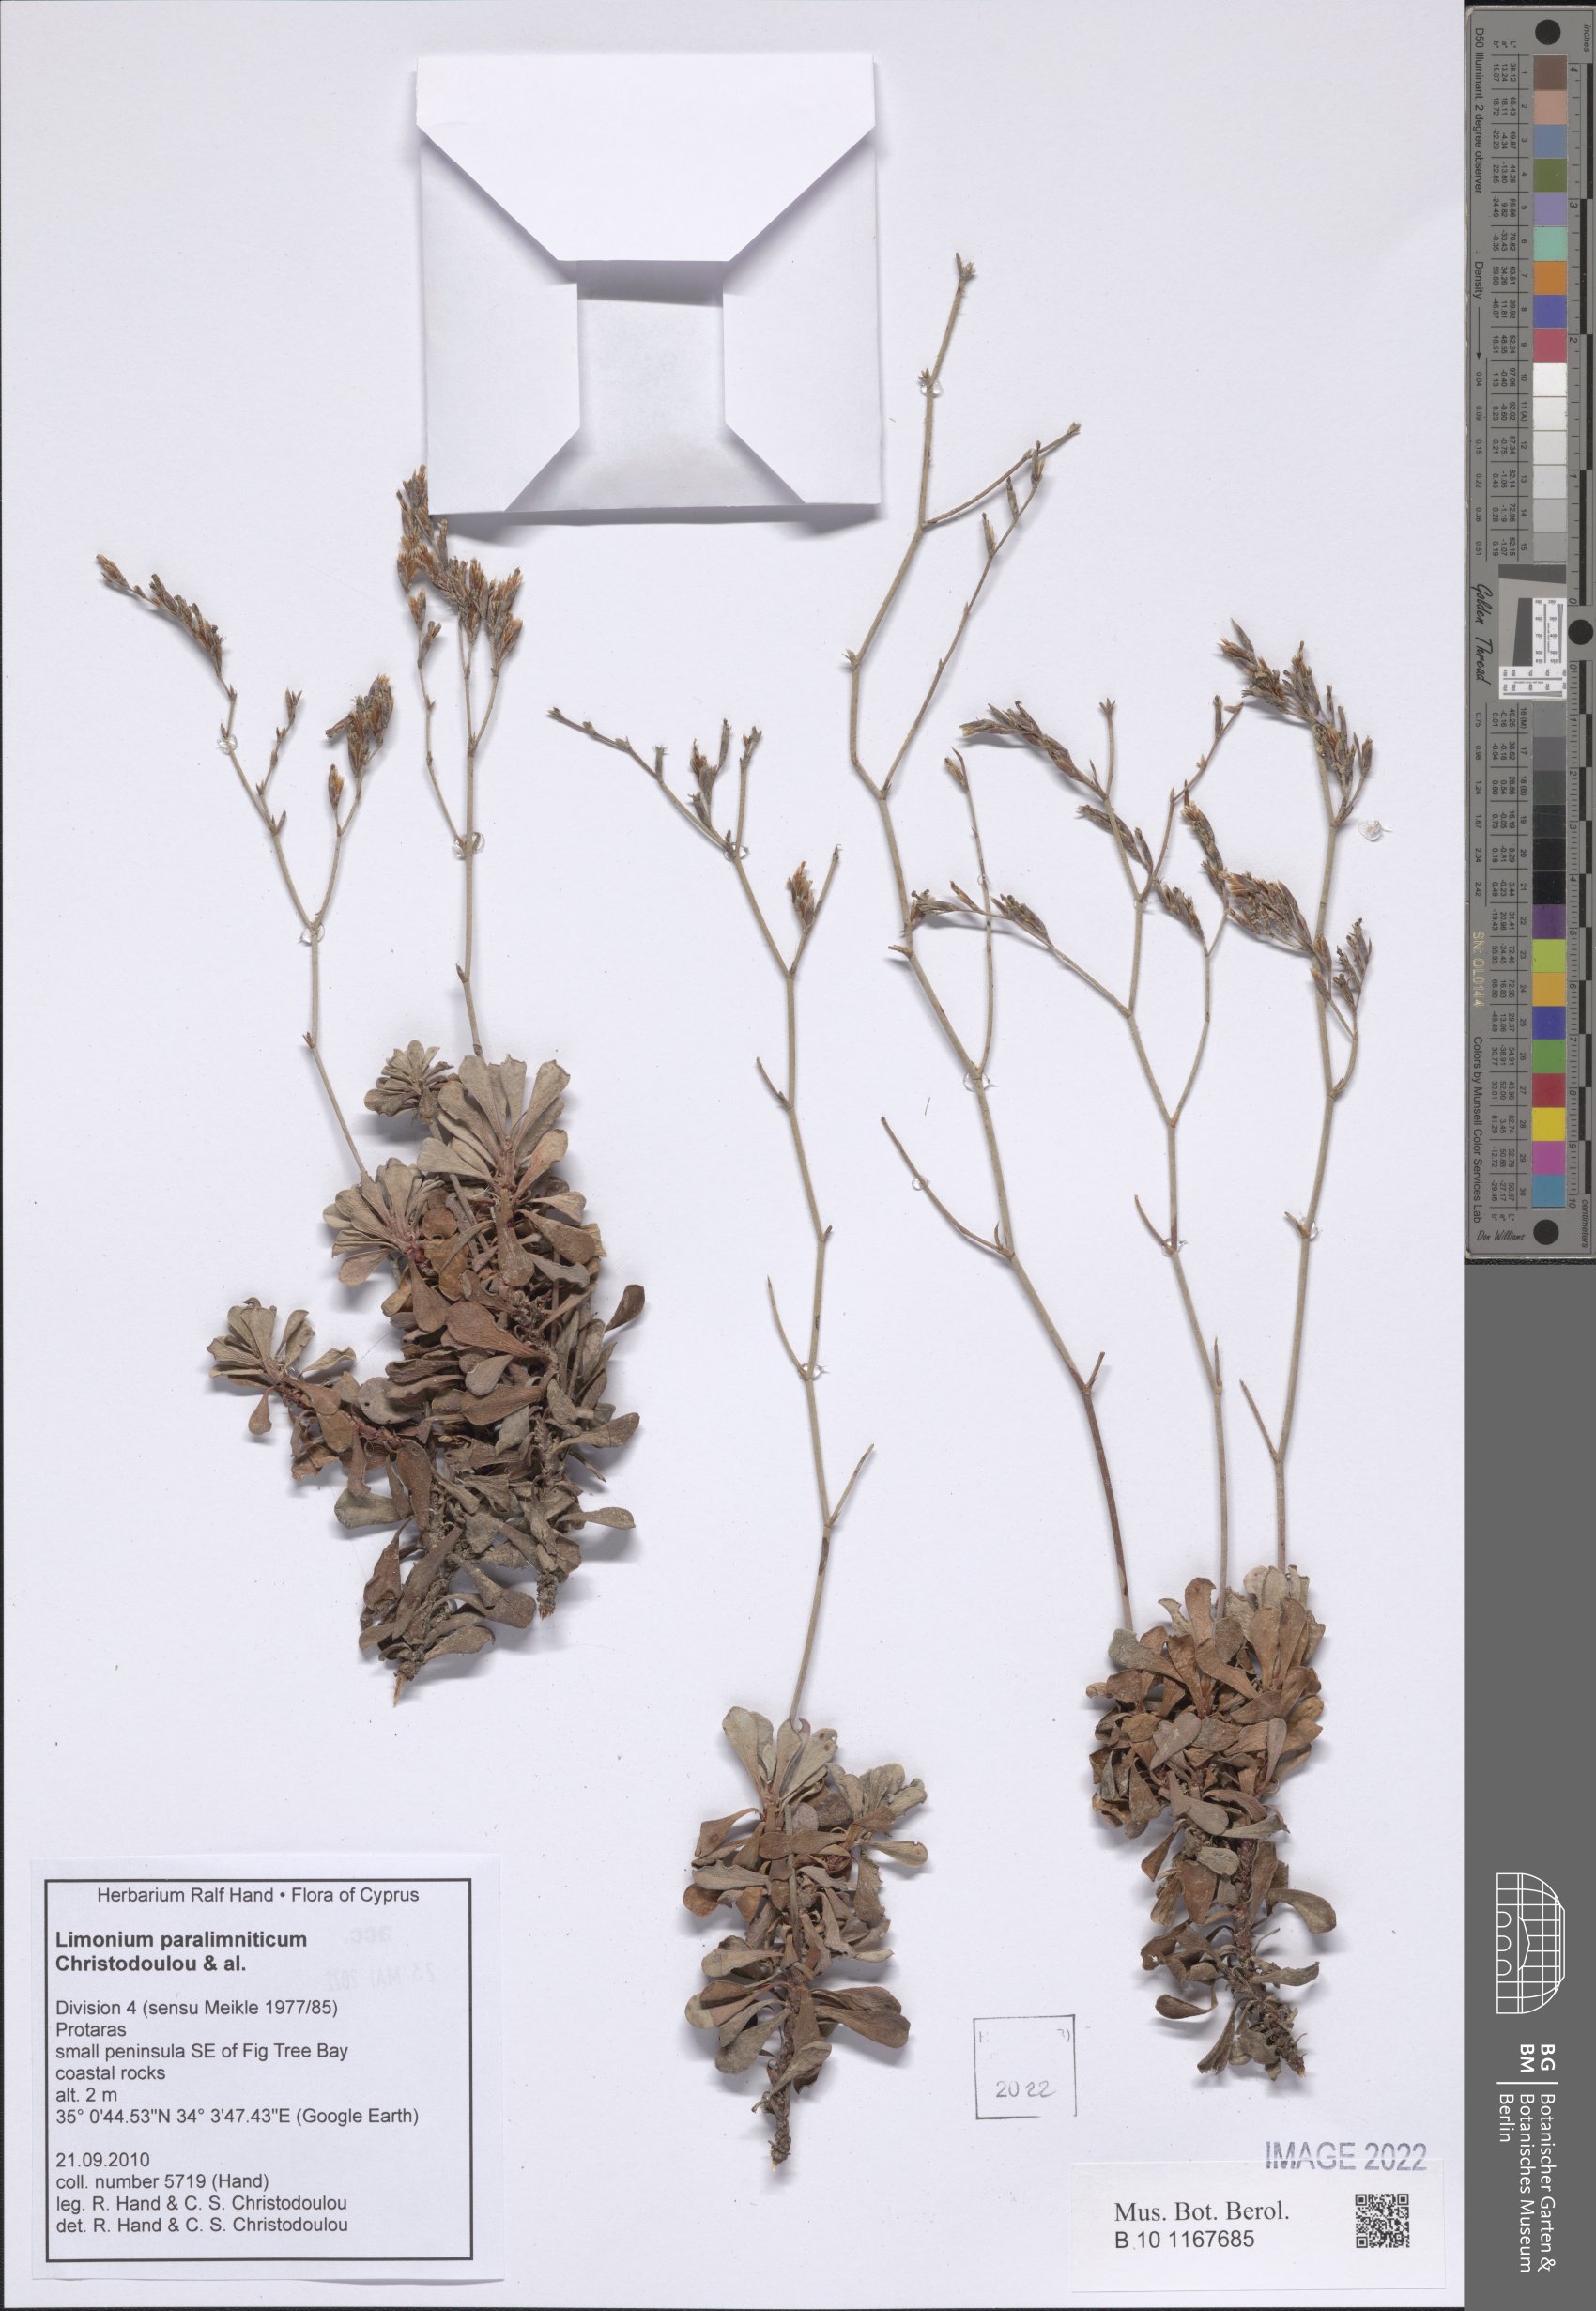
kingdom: Plantae
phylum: Tracheophyta
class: Magnoliopsida
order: Caryophyllales
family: Plumbaginaceae
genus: Limonium
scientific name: Limonium paralimniticum
